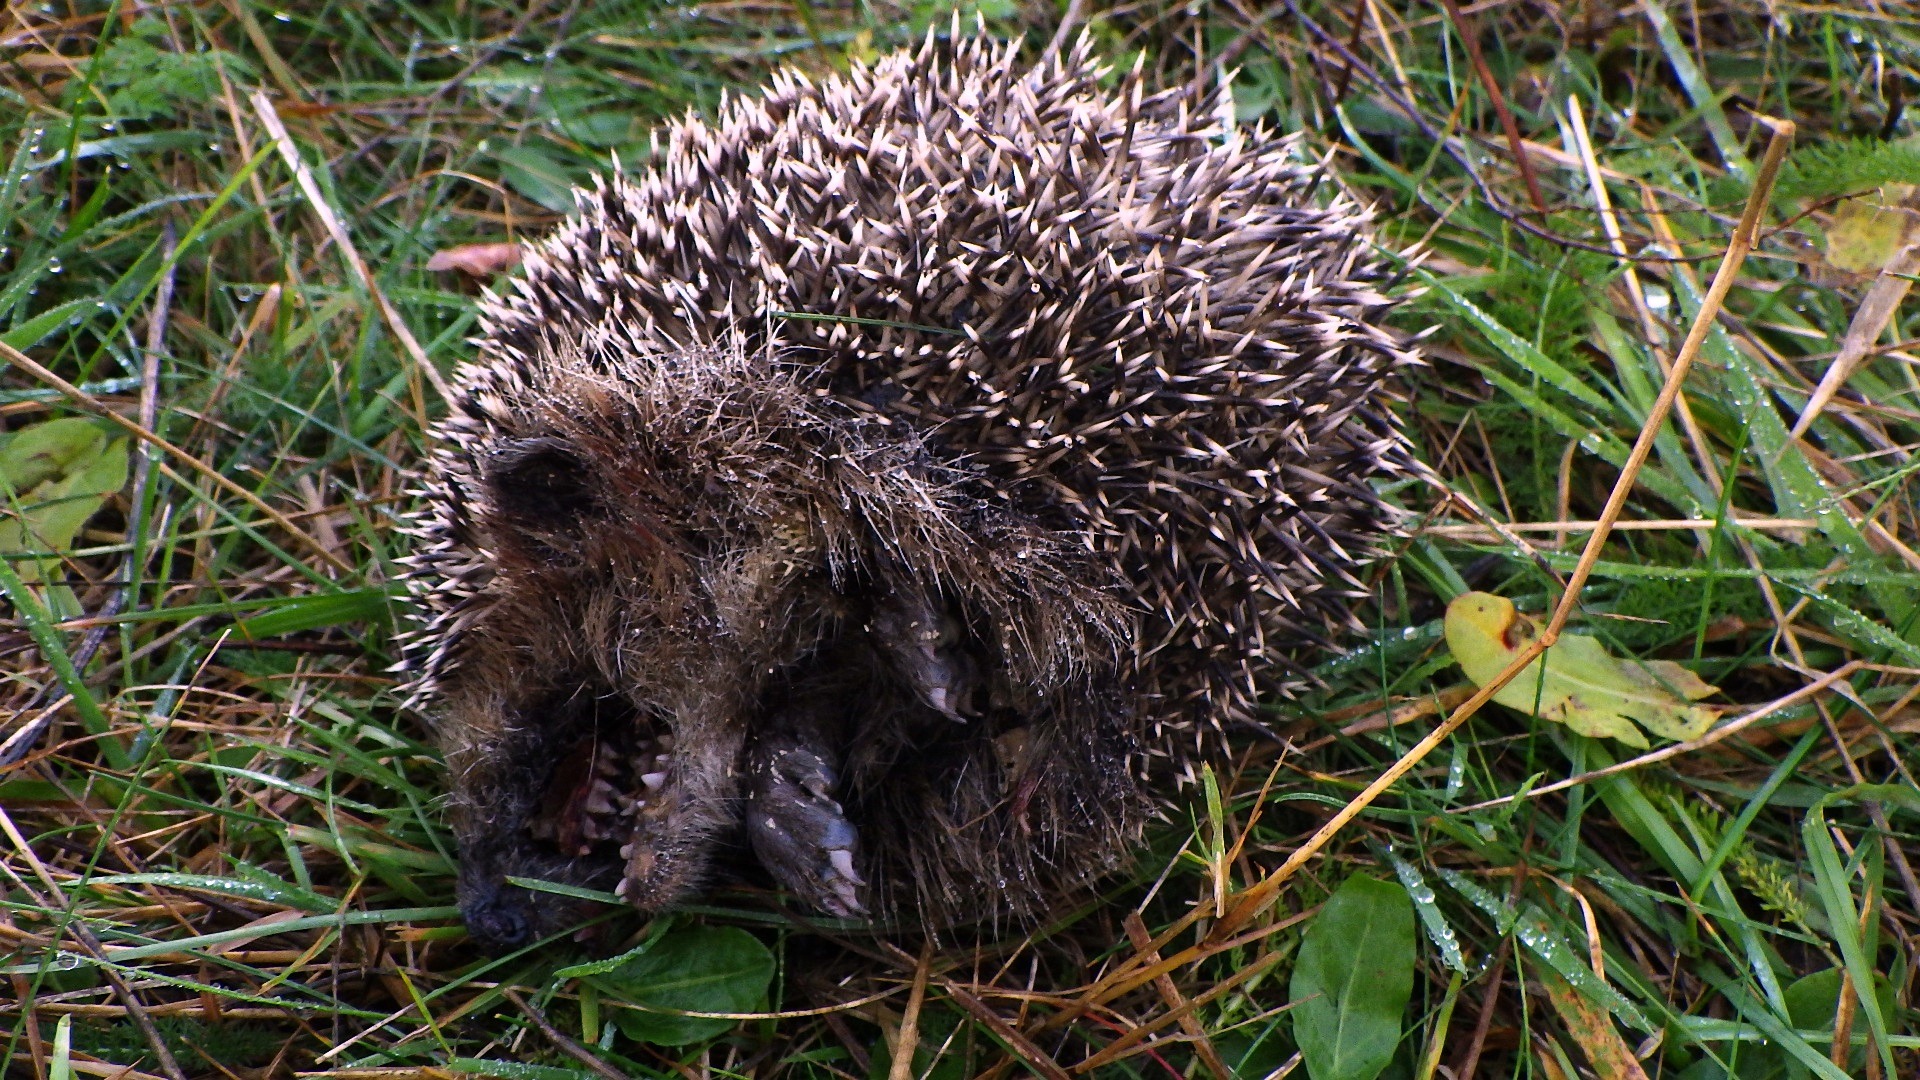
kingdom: Animalia
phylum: Chordata
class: Mammalia
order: Erinaceomorpha
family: Erinaceidae
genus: Erinaceus
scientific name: Erinaceus europaeus
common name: Pindsvin
